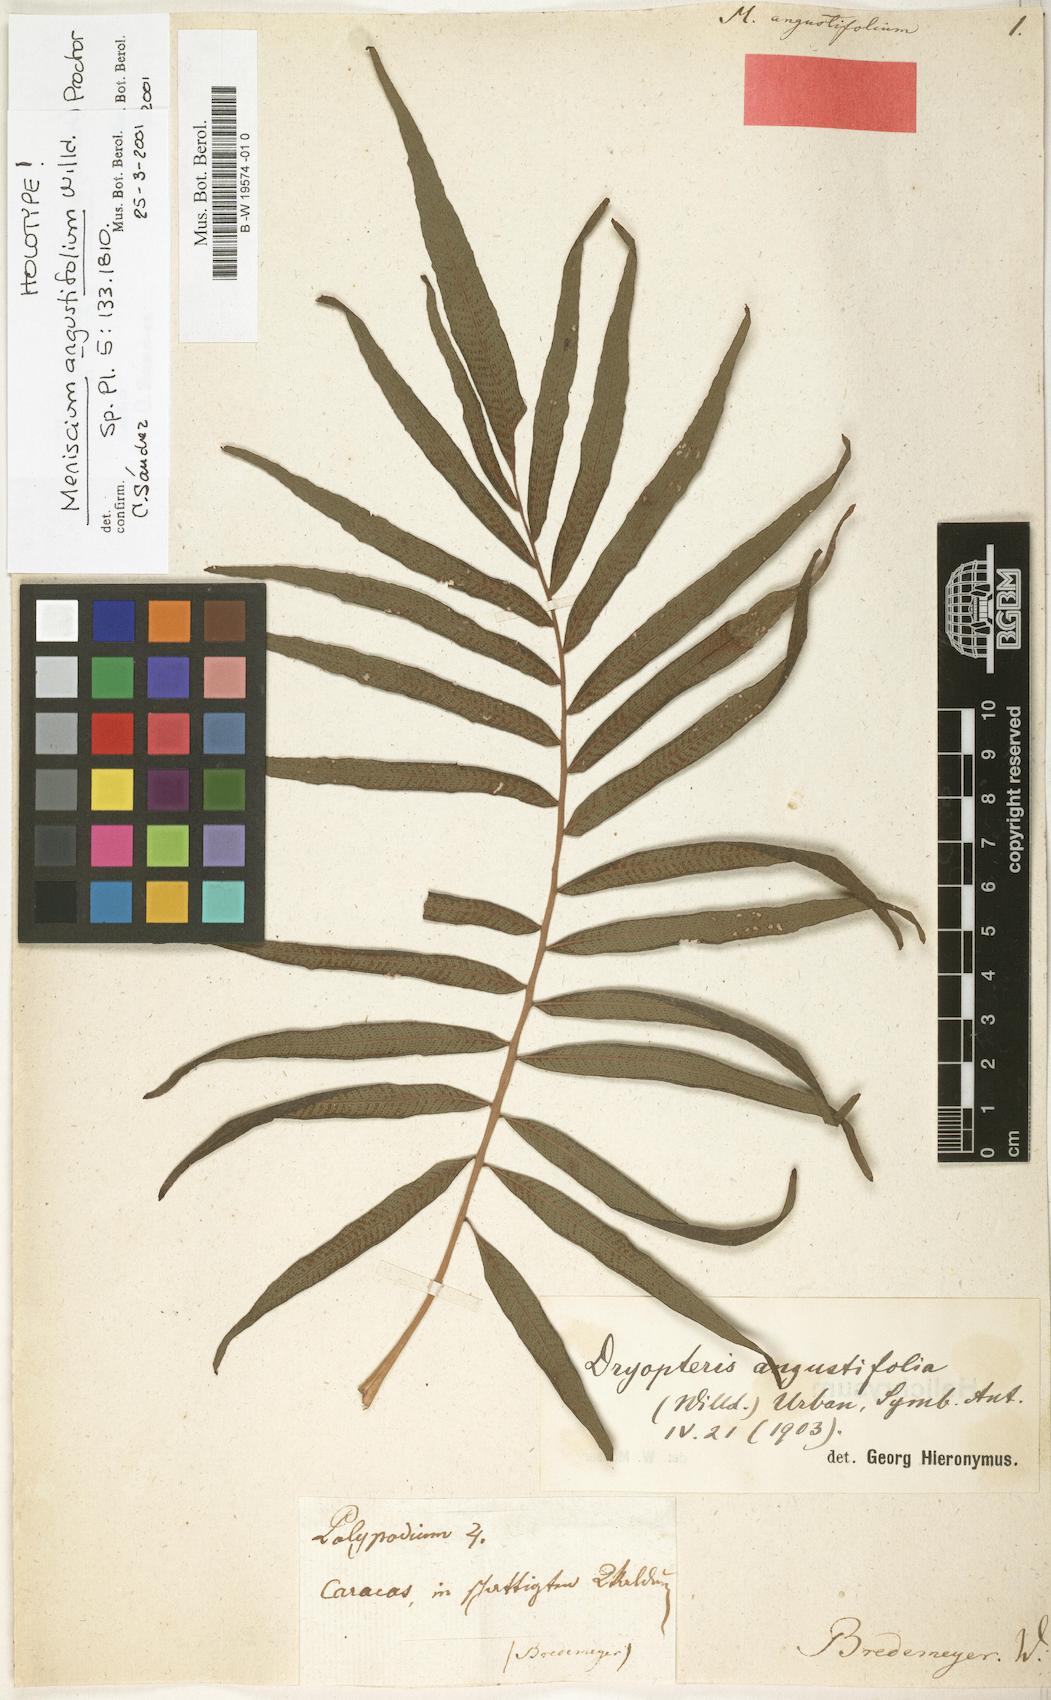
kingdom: Plantae
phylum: Tracheophyta
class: Polypodiopsida
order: Polypodiales
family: Thelypteridaceae
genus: Meniscium
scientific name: Meniscium angustifolium
